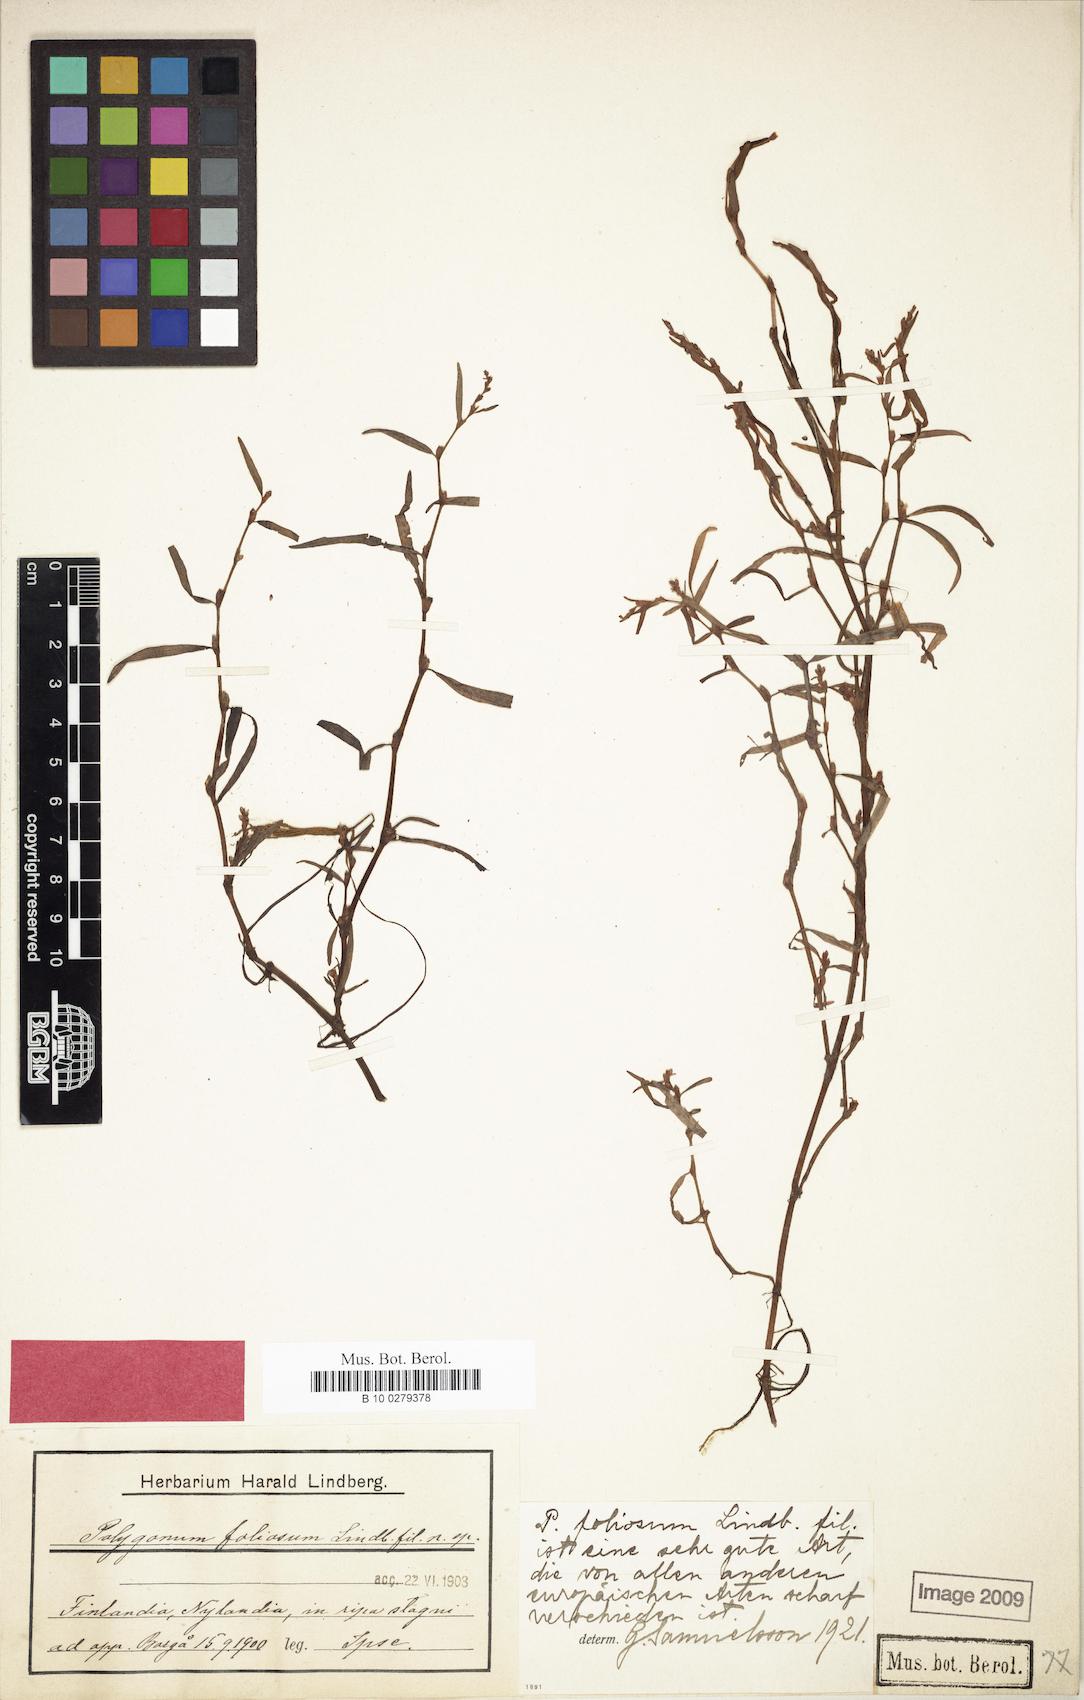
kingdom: Plantae
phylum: Tracheophyta
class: Magnoliopsida
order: Caryophyllales
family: Polygonaceae
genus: Persicaria
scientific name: Persicaria foliosa
